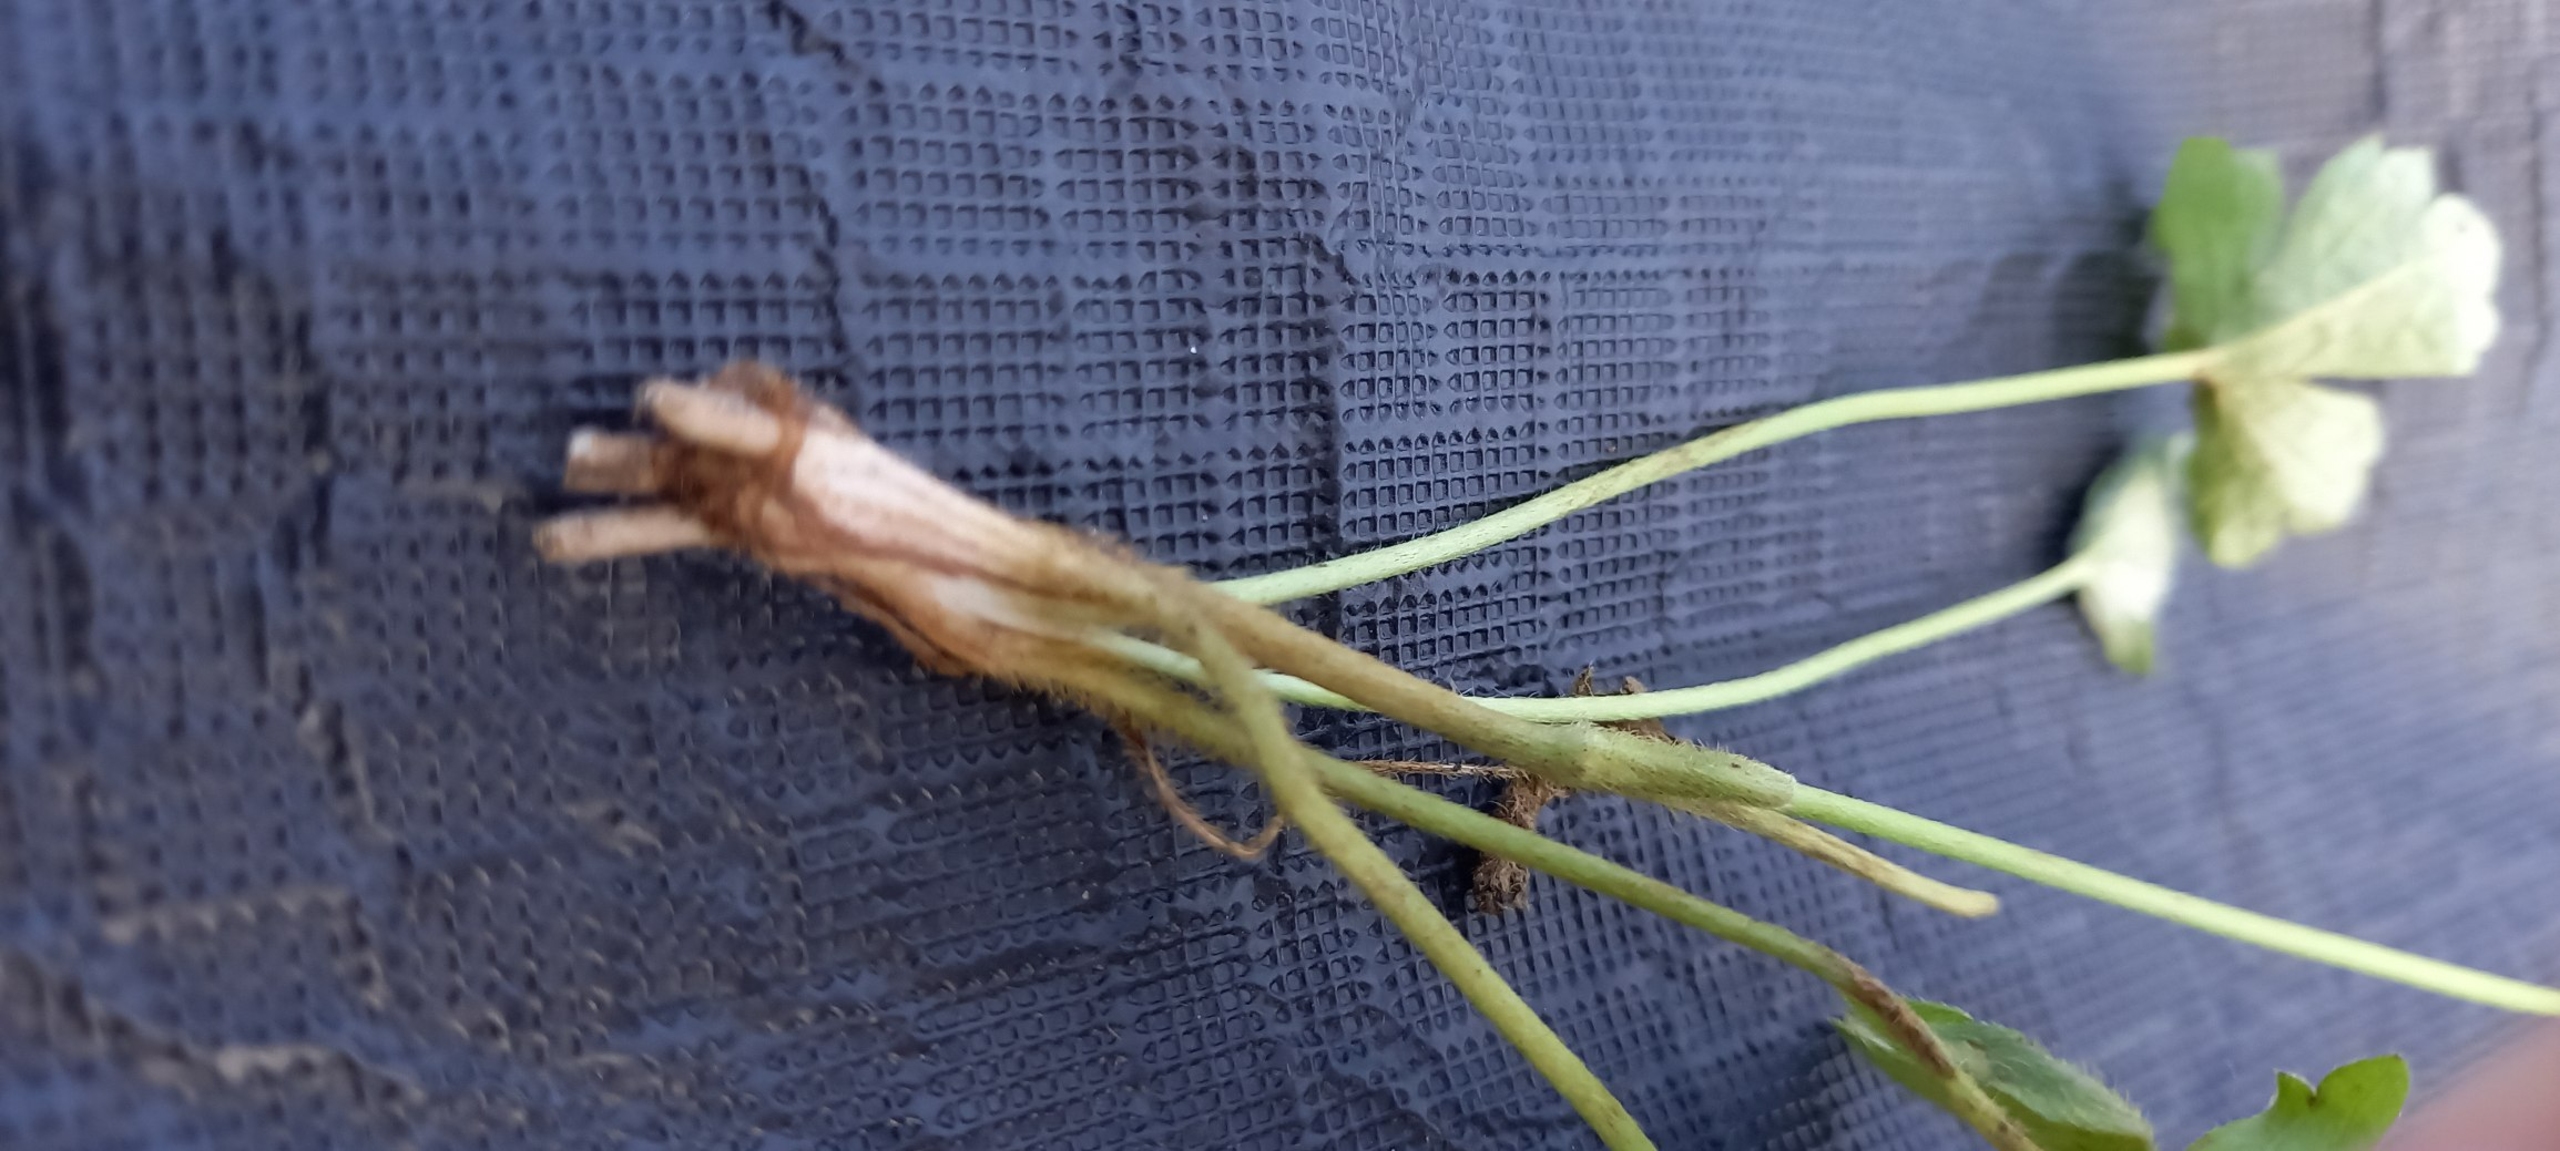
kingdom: Plantae
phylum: Tracheophyta
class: Magnoliopsida
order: Ranunculales
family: Ranunculaceae
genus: Ranunculus
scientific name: Ranunculus acris
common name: Bidende ranunkel
